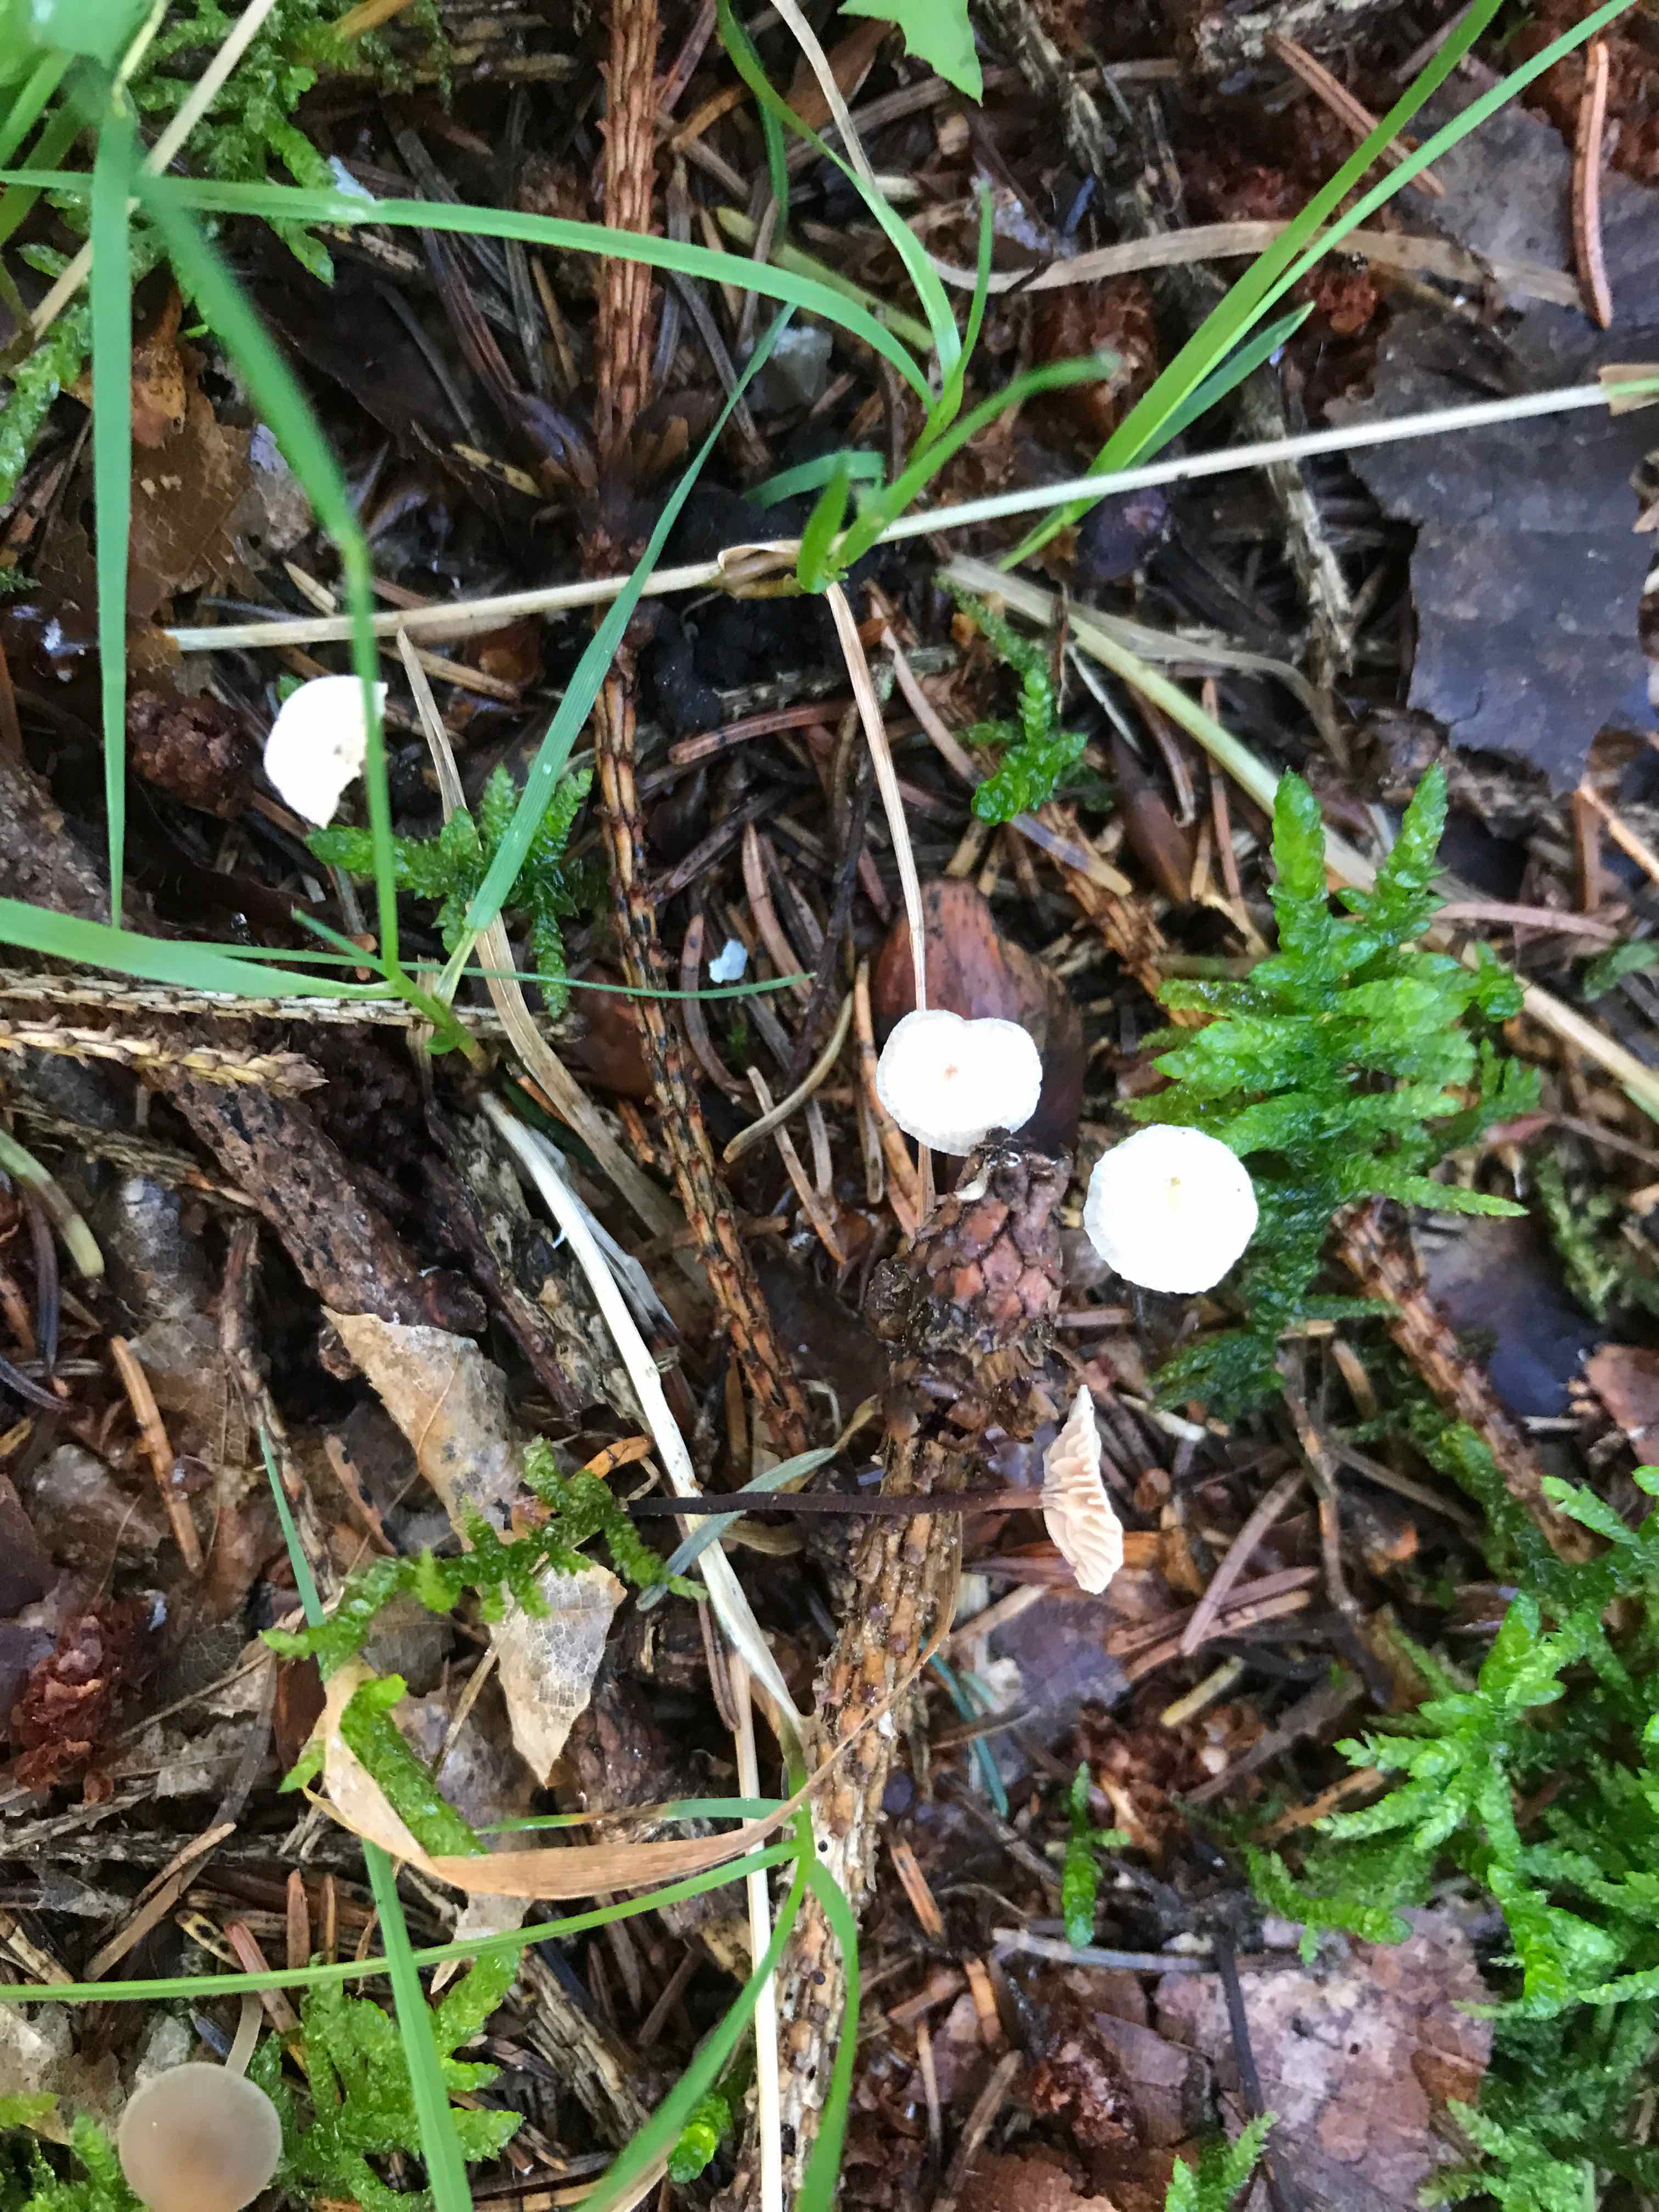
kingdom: Fungi
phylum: Basidiomycota
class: Agaricomycetes
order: Agaricales
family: Omphalotaceae
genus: Paragymnopus
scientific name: Paragymnopus perforans
